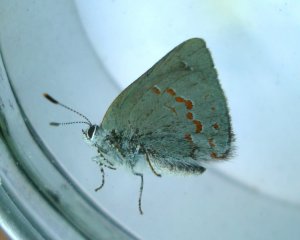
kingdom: Animalia
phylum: Arthropoda
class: Insecta
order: Lepidoptera
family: Lycaenidae
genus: Erora
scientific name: Erora laeta
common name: Early Hairstreak
